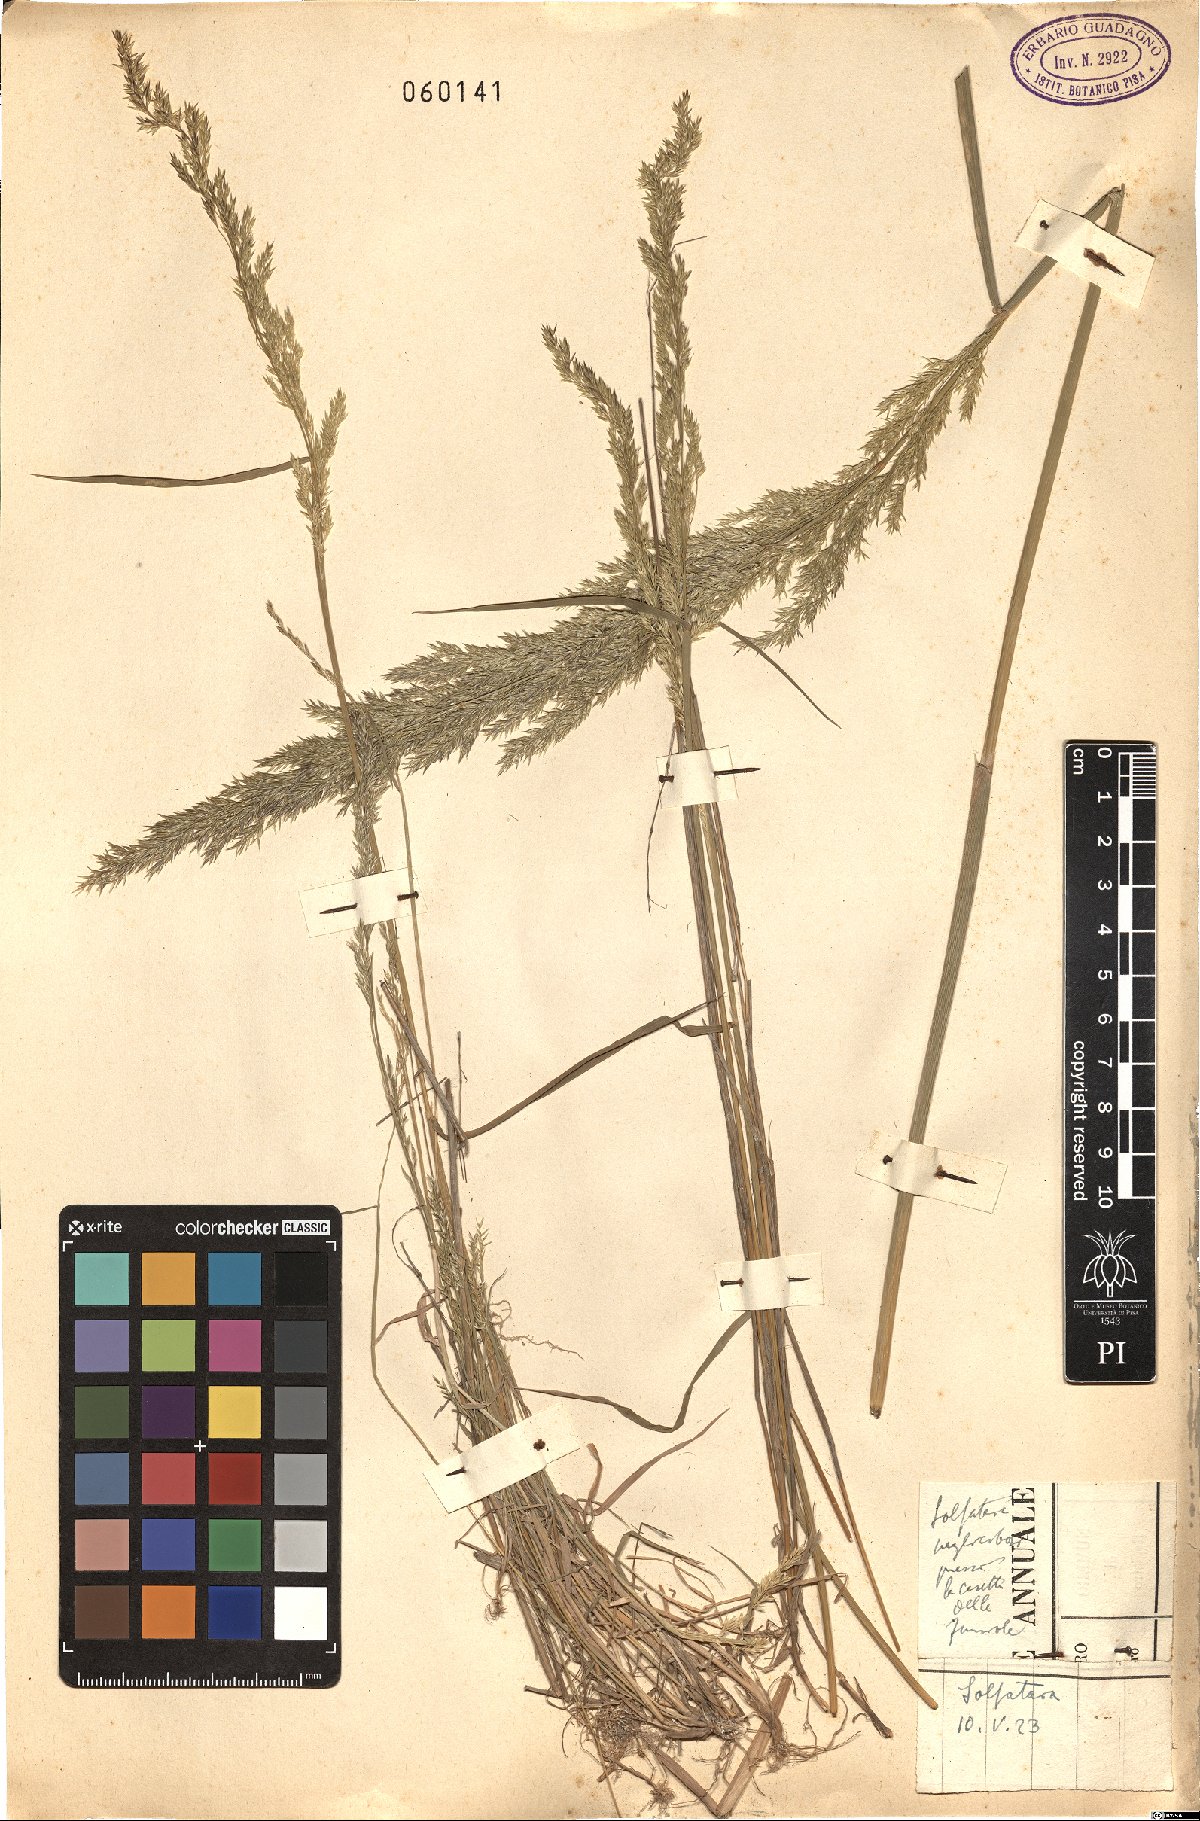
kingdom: Plantae
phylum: Tracheophyta
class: Liliopsida
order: Poales
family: Poaceae
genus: Agrostis
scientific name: Agrostis
